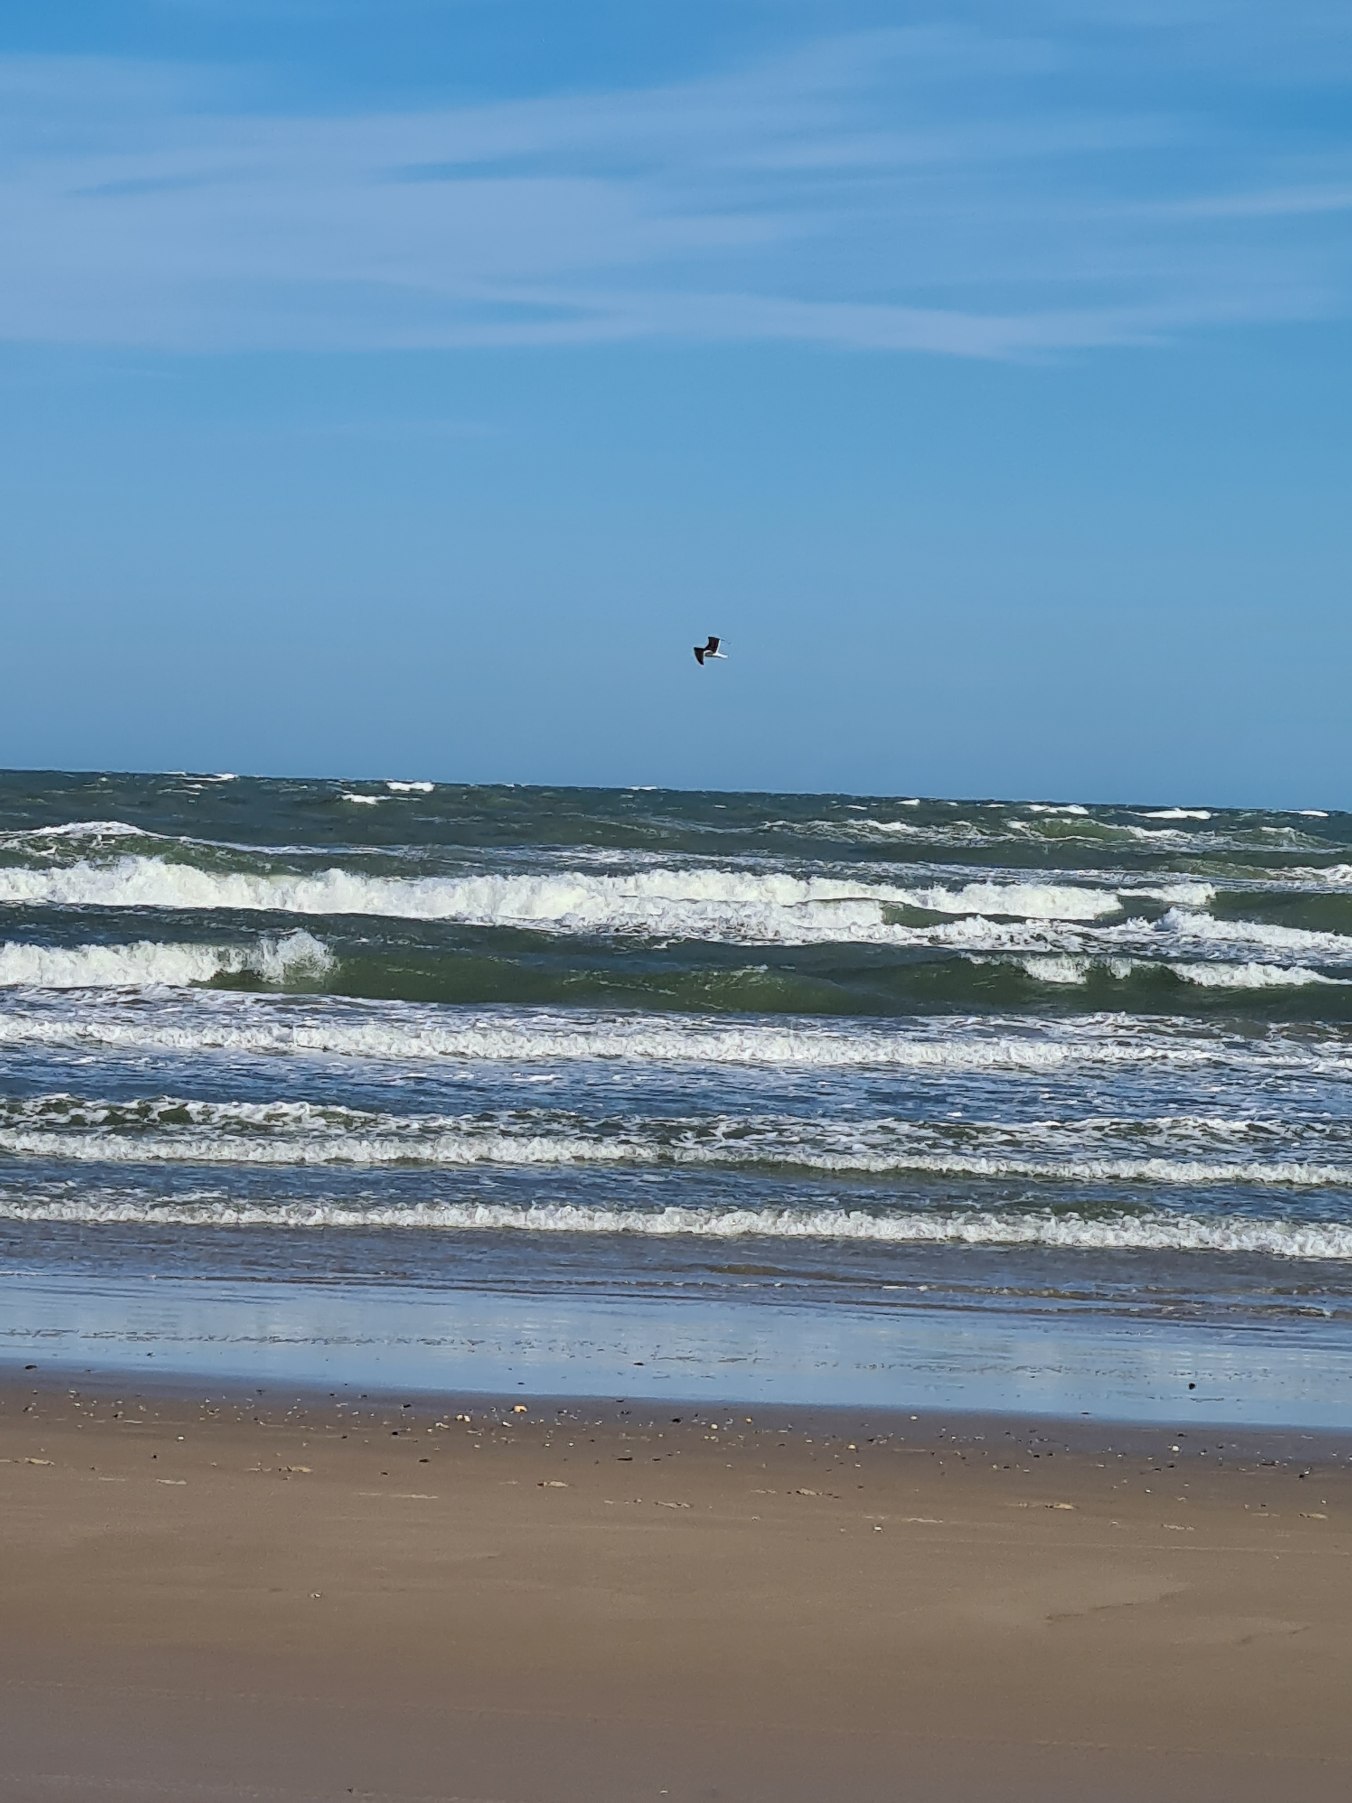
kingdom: Animalia
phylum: Chordata
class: Aves
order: Charadriiformes
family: Laridae
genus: Larus
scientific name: Larus marinus
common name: Svartbag
